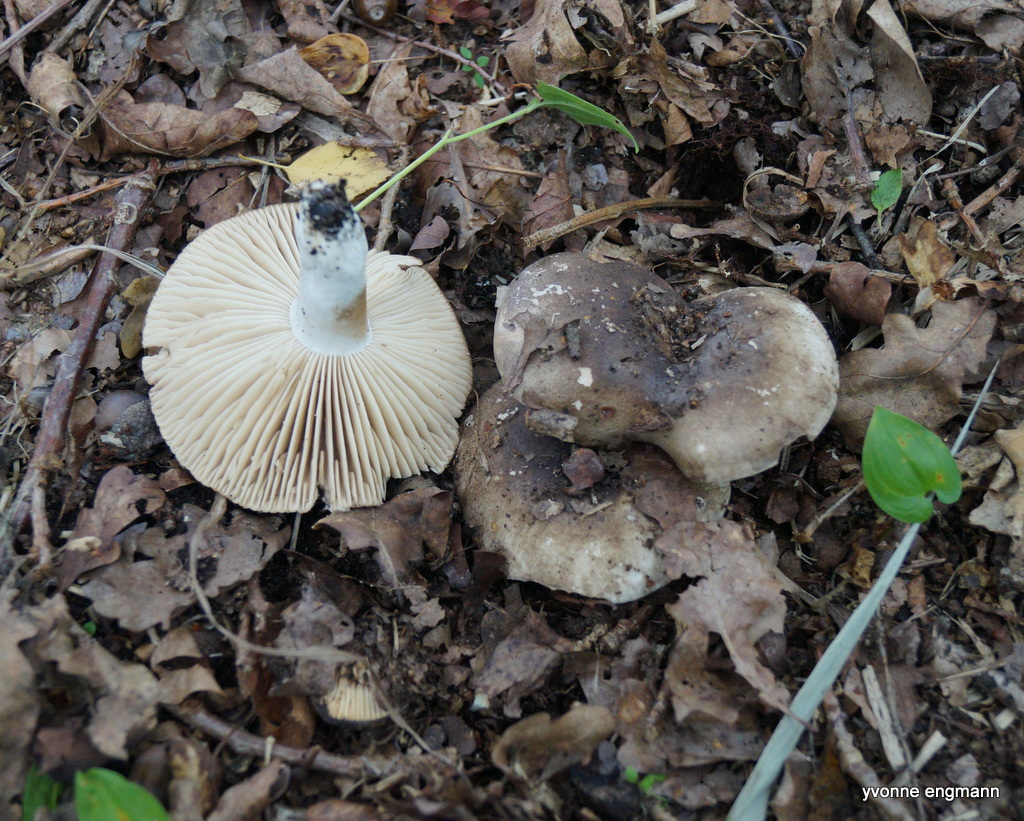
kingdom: Fungi
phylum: Basidiomycota
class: Agaricomycetes
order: Russulales
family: Russulaceae
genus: Russula
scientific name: Russula adusta
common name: sværtende skørhat
